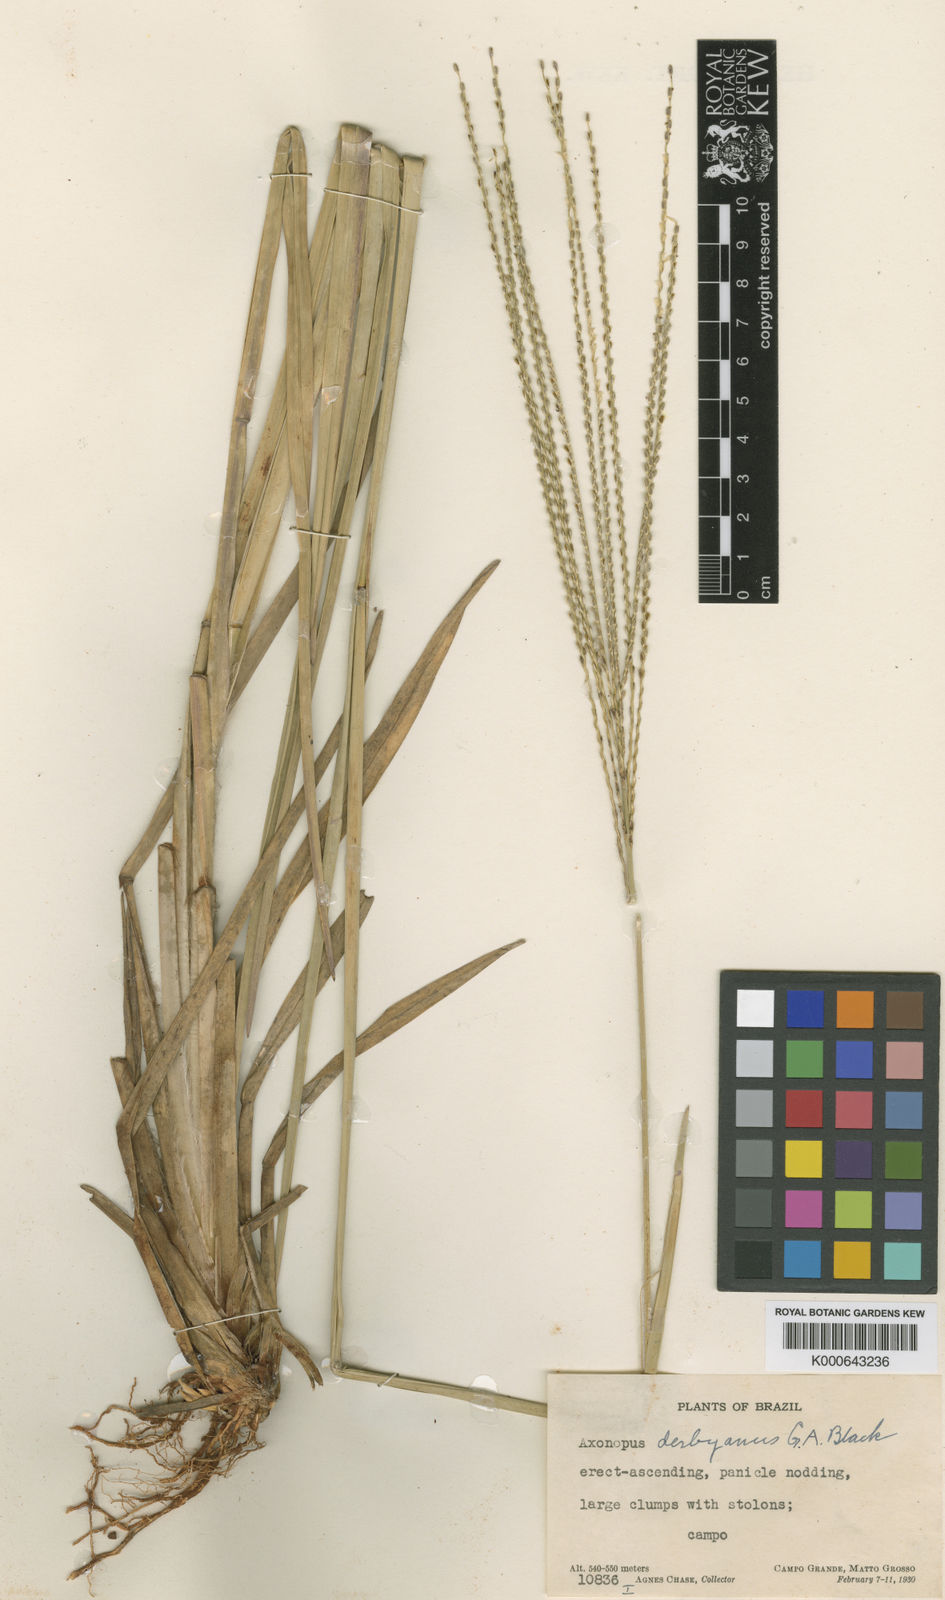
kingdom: Plantae
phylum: Tracheophyta
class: Liliopsida
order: Poales
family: Poaceae
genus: Axonopus
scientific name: Axonopus pressus
